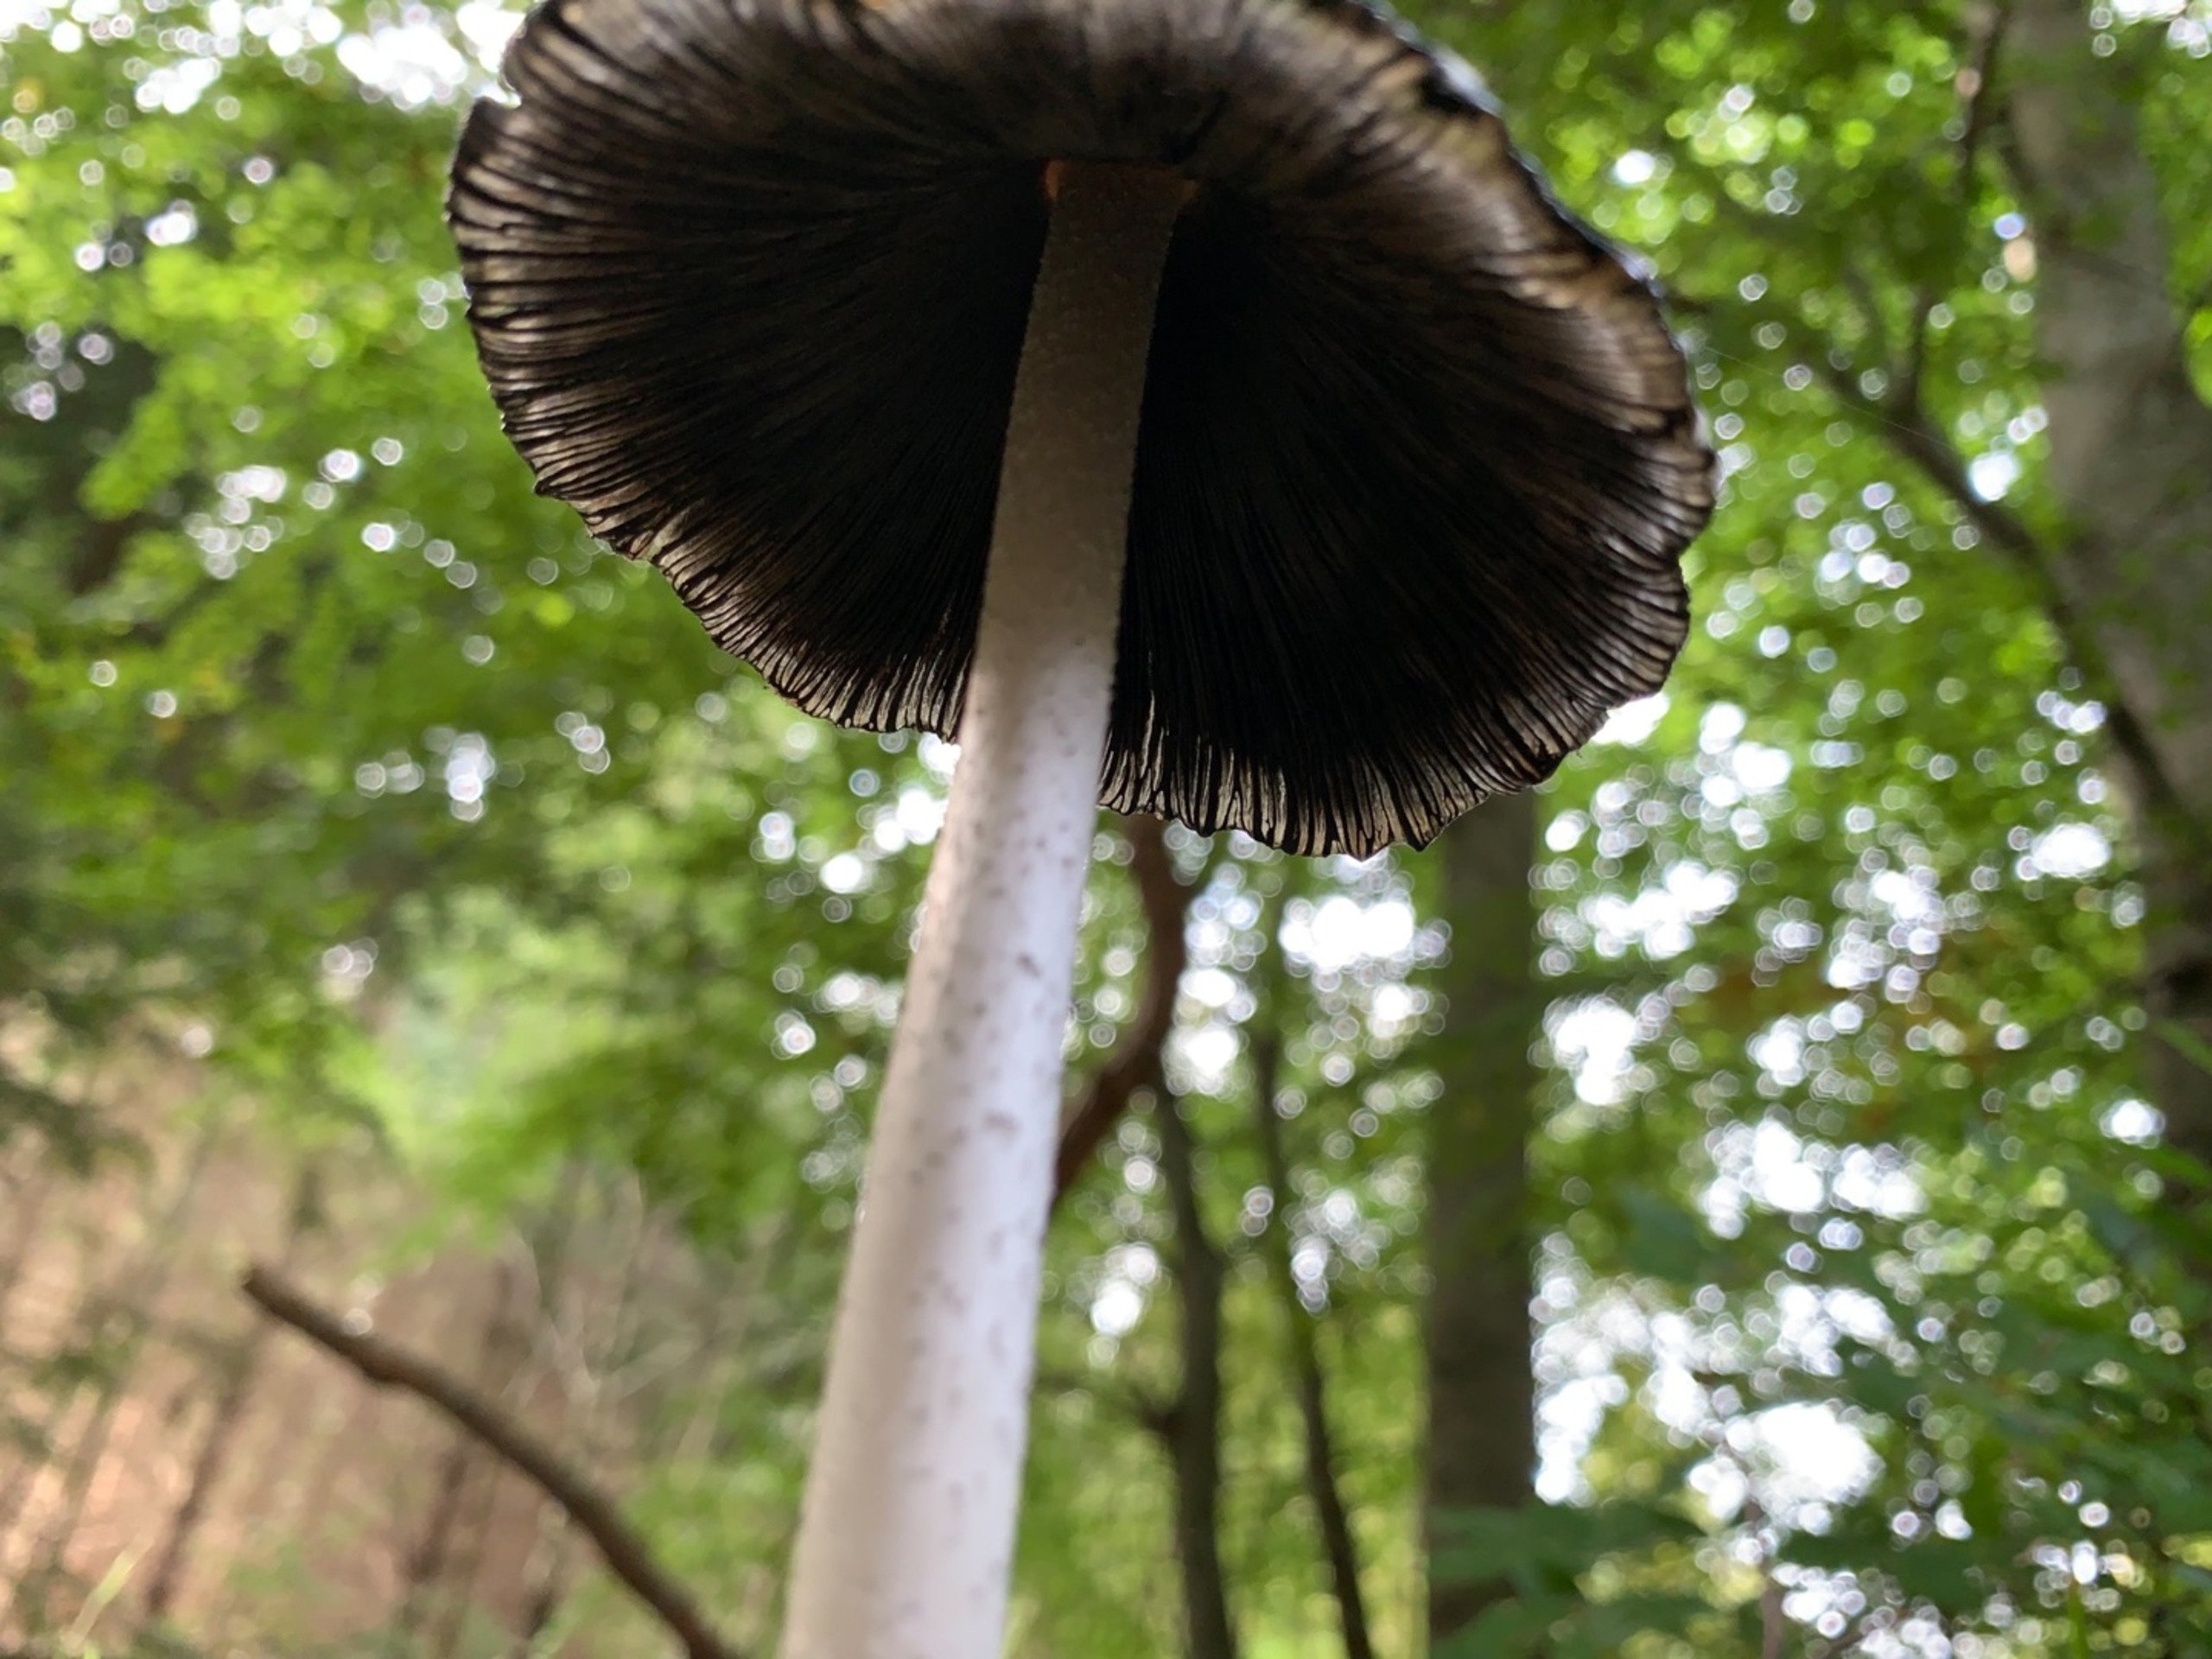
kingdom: Fungi
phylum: Basidiomycota
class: Agaricomycetes
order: Agaricales
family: Psathyrellaceae
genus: Coprinopsis
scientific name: Coprinopsis picacea
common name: Skade-blækhat
